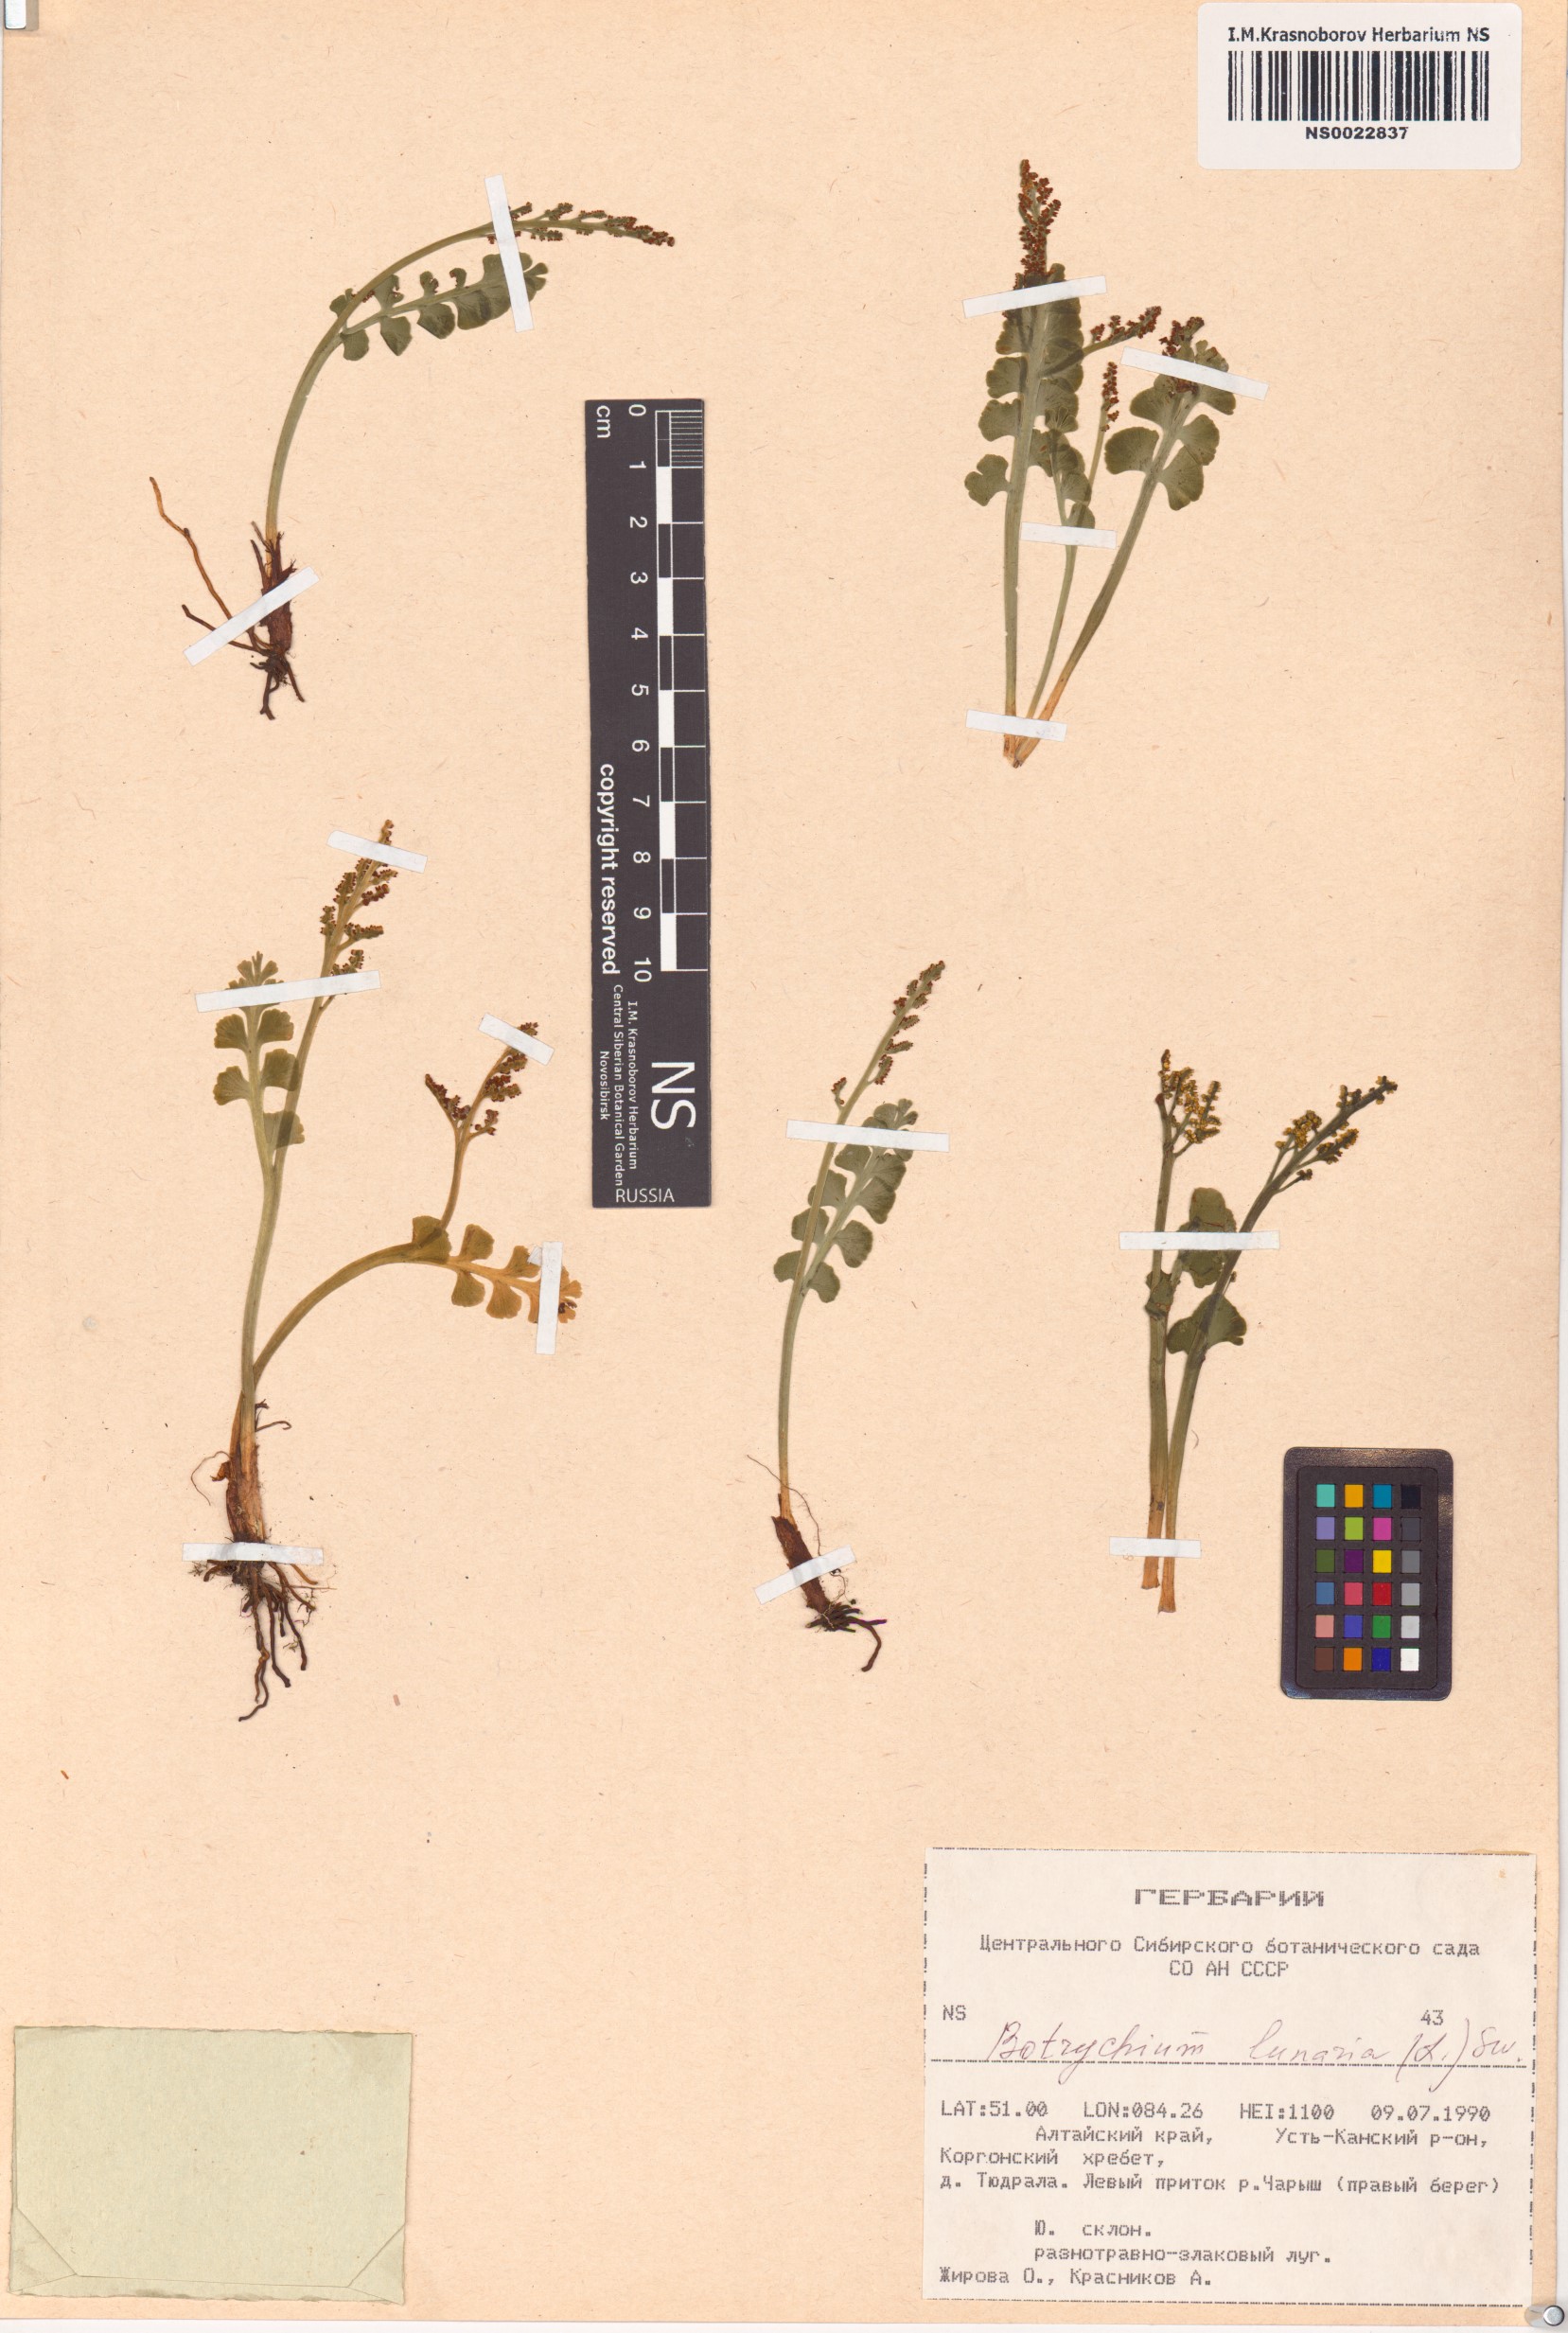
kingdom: Plantae
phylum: Tracheophyta
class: Polypodiopsida
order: Ophioglossales
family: Ophioglossaceae
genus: Botrychium
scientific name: Botrychium lunaria
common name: Moonwort
